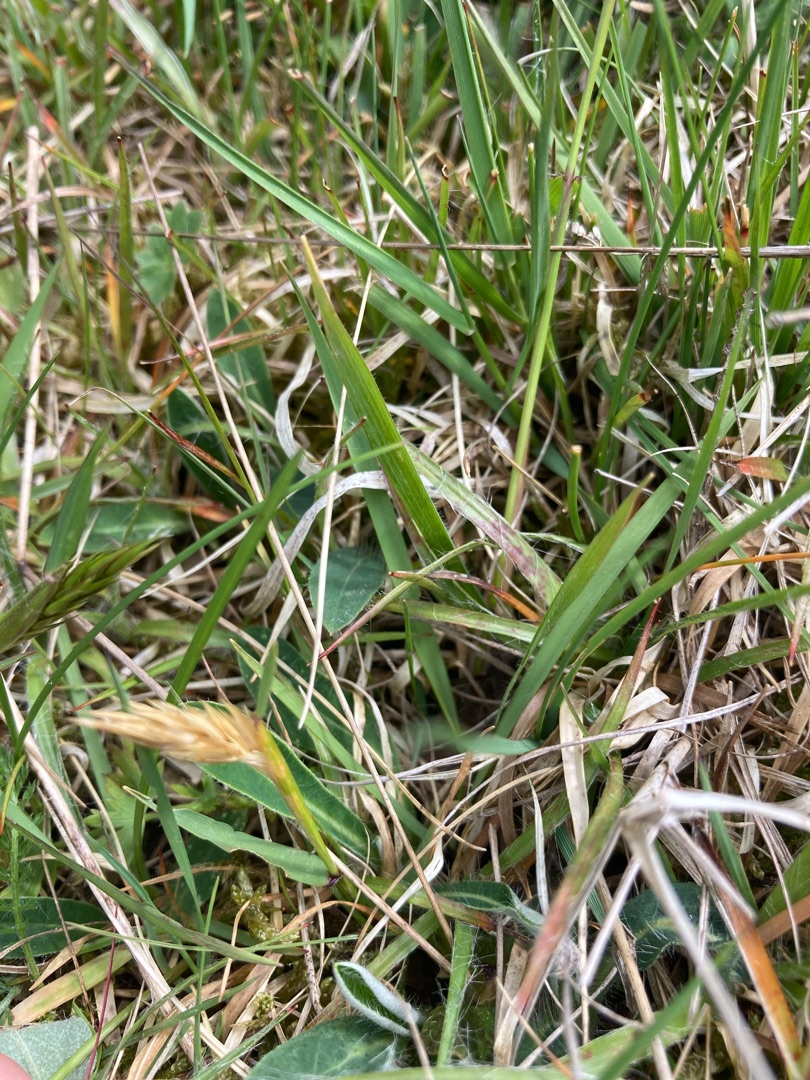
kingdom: Plantae
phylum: Tracheophyta
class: Liliopsida
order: Poales
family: Poaceae
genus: Anthoxanthum
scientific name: Anthoxanthum odoratum
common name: Vellugtende gulaks
